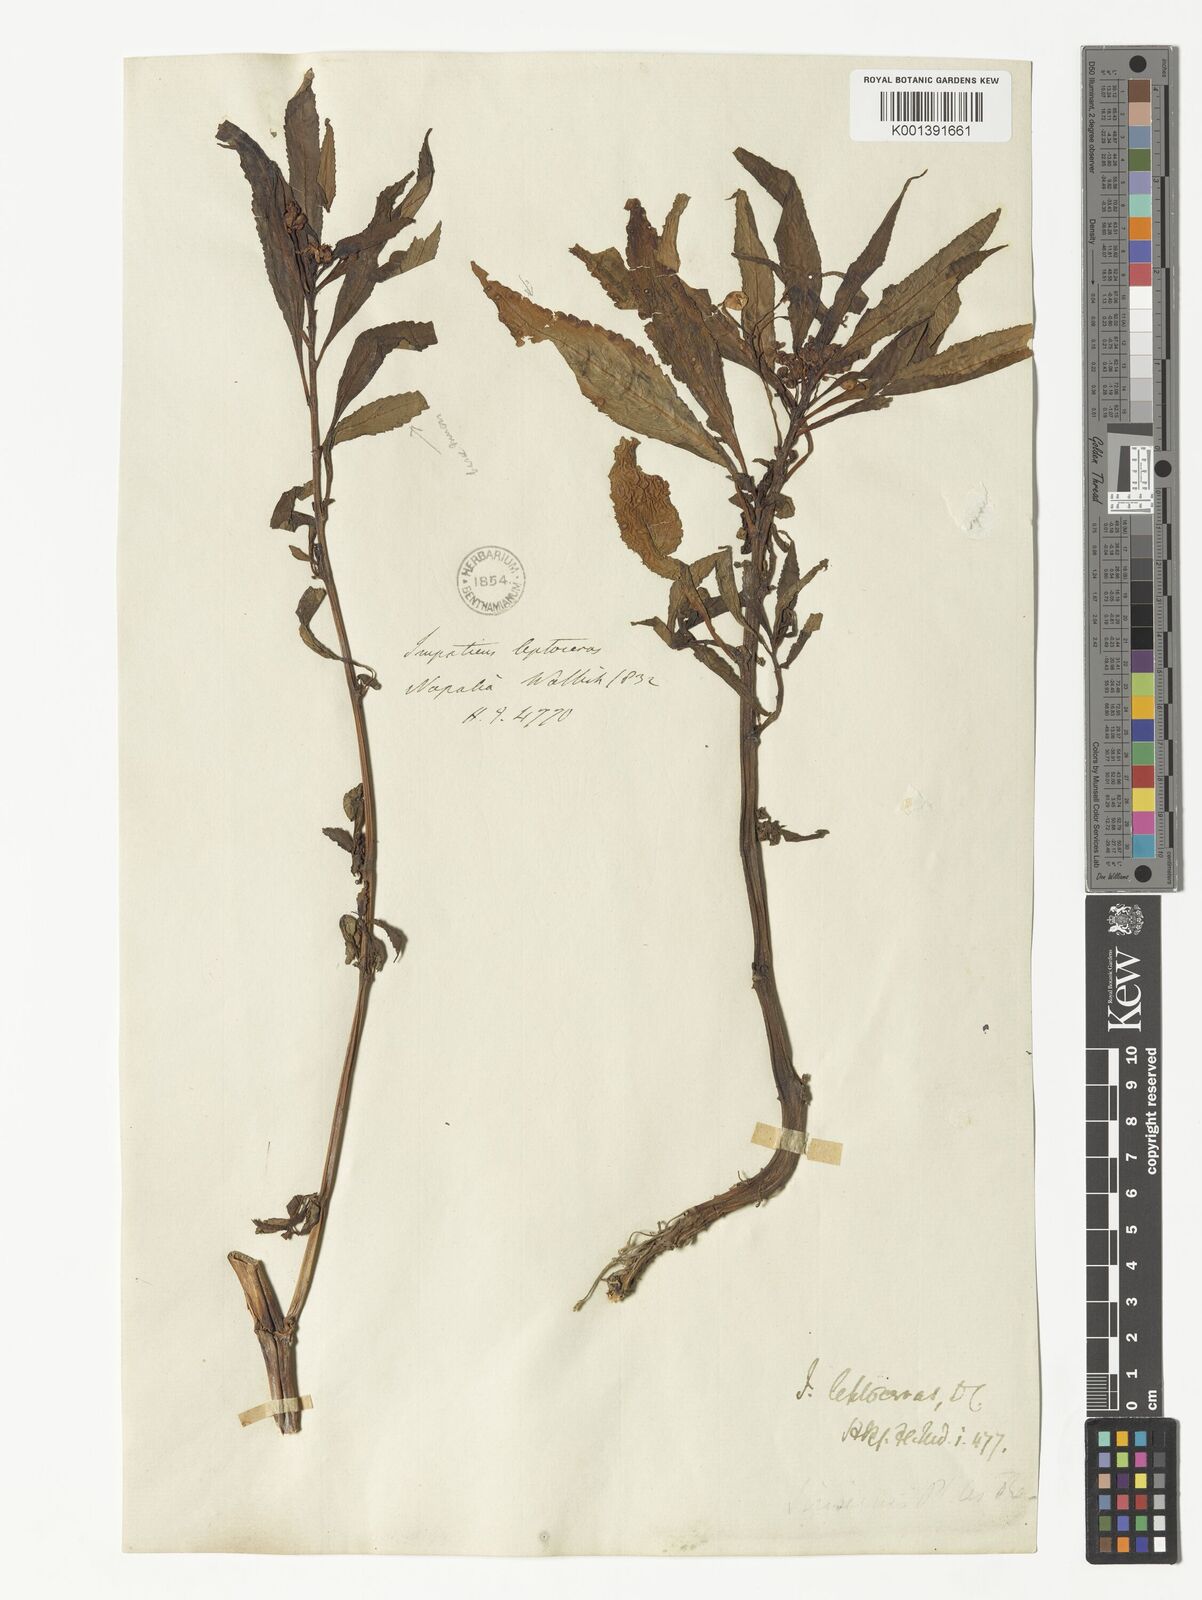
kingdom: Plantae
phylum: Tracheophyta
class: Magnoliopsida
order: Ericales
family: Balsaminaceae
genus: Impatiens
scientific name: Impatiens leptoceras
